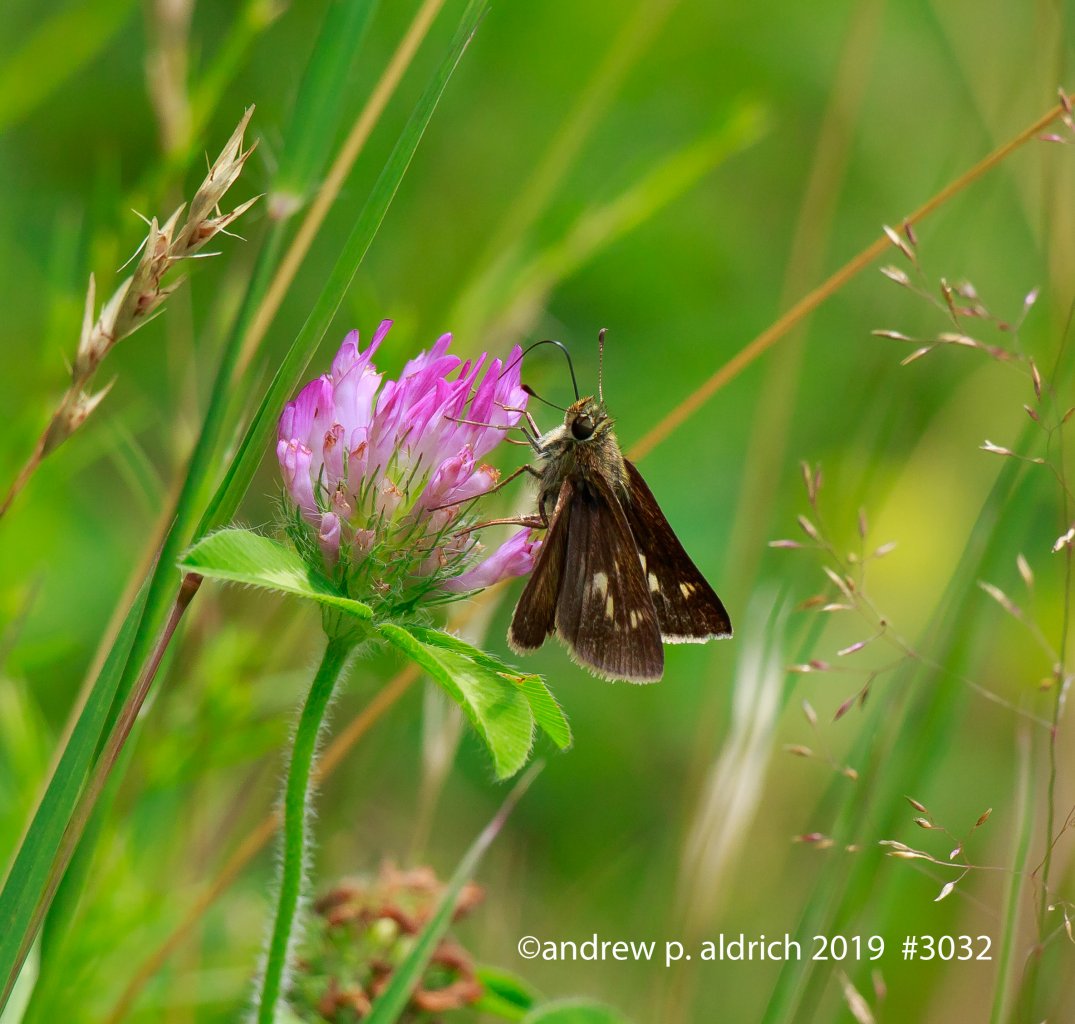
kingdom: Animalia
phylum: Arthropoda
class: Insecta
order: Lepidoptera
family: Hesperiidae
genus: Vernia
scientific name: Vernia verna
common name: Little Glassywing
